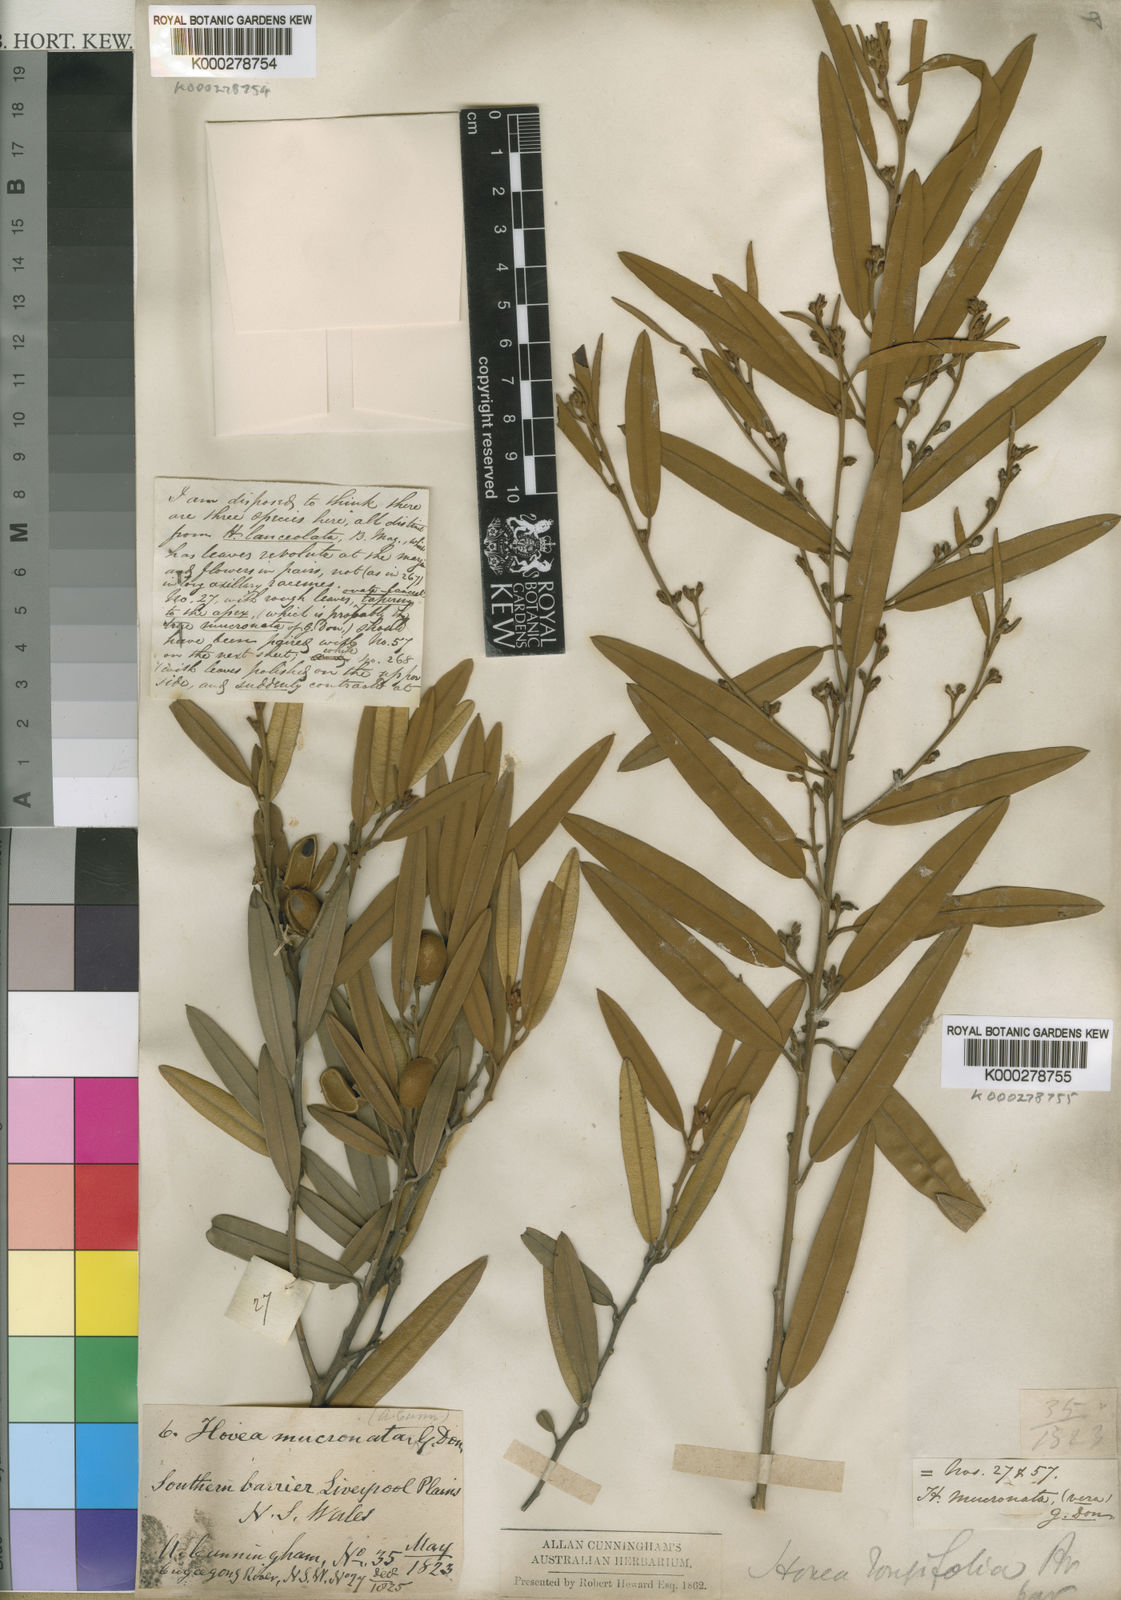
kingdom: Plantae
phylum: Tracheophyta
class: Magnoliopsida
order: Fabales
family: Fabaceae
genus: Hovea
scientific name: Hovea lanceolata
